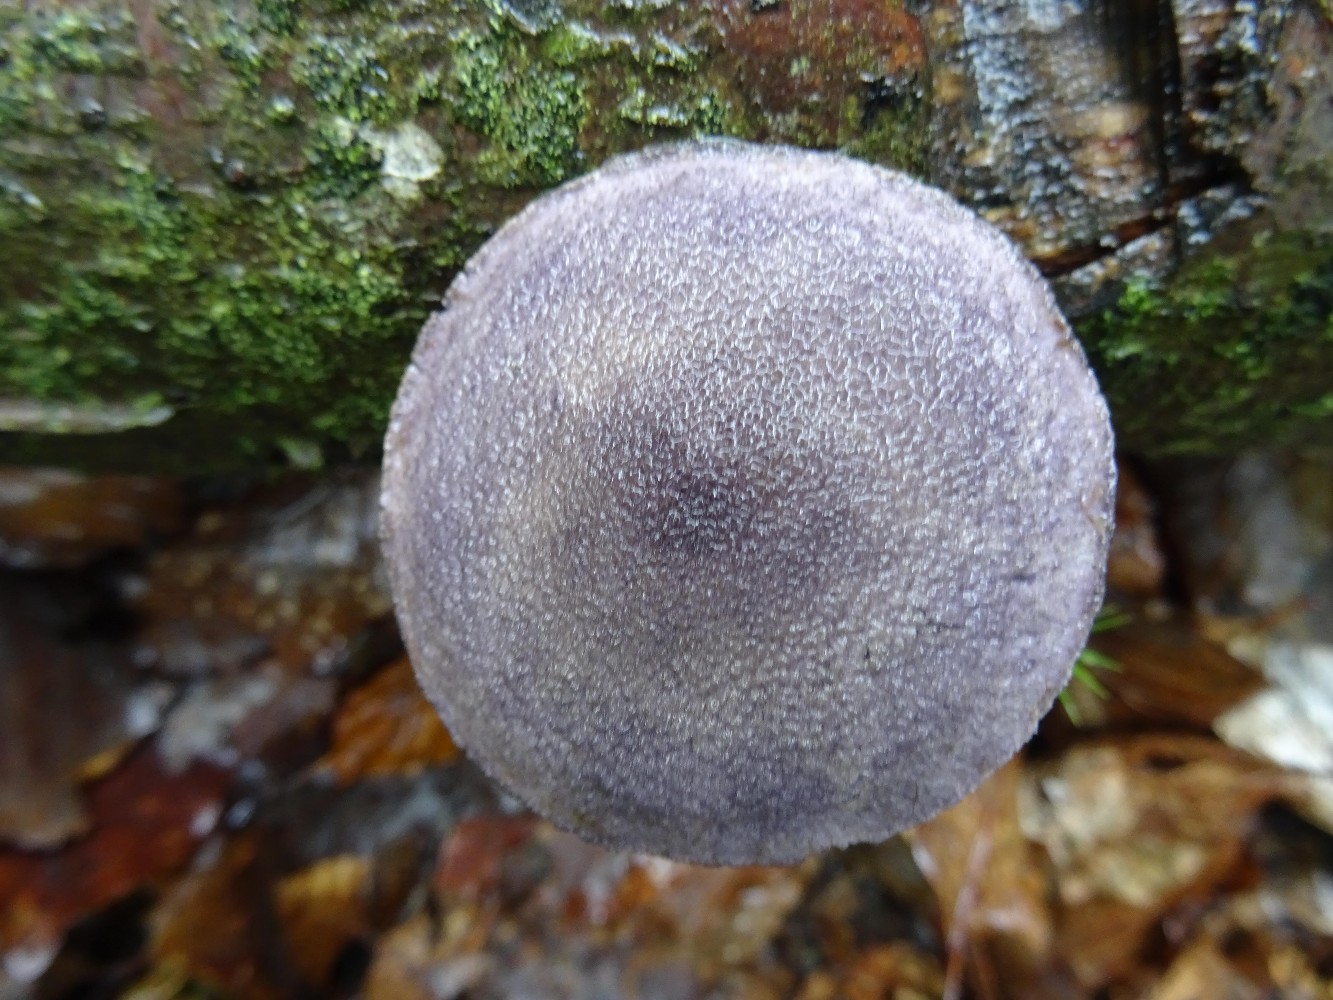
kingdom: Fungi
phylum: Basidiomycota
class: Agaricomycetes
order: Agaricales
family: Cortinariaceae
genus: Cortinarius
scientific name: Cortinarius violaceus
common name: mørkviolet slørhat
